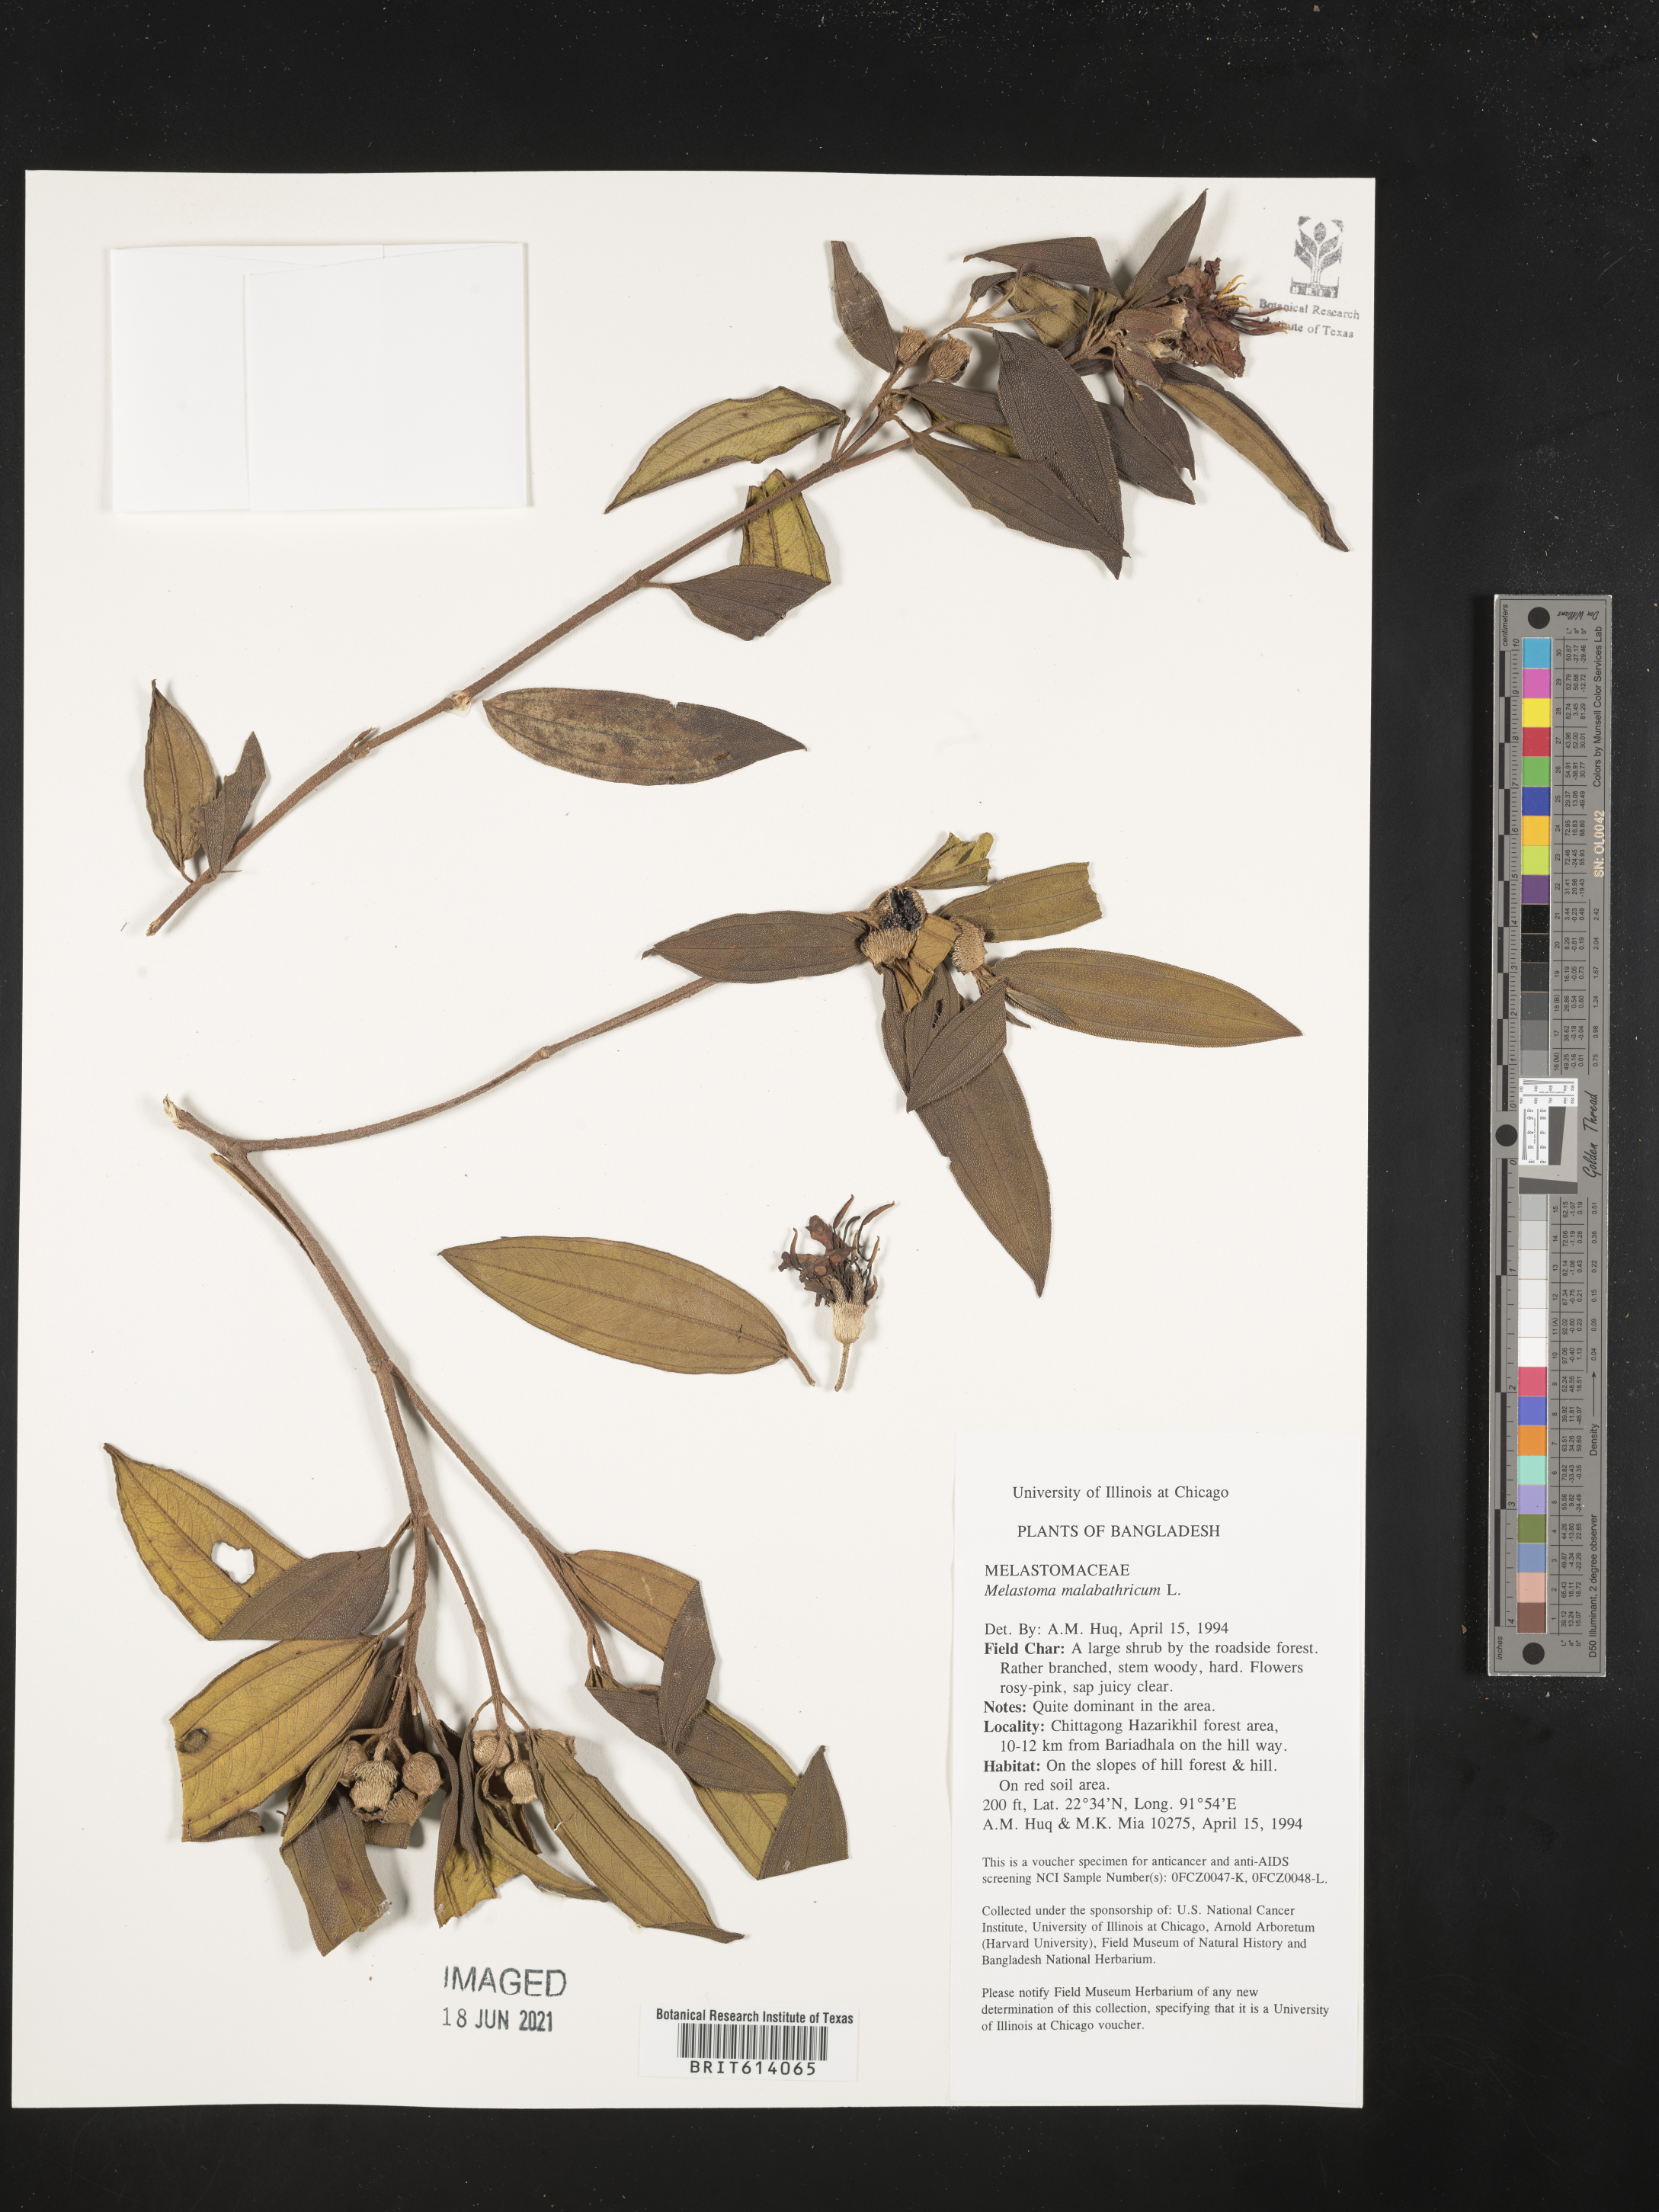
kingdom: Plantae
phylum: Tracheophyta
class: Magnoliopsida
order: Myrtales
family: Melastomataceae
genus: Melastoma
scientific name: Melastoma malabathricum
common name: Indian-rhododendron
